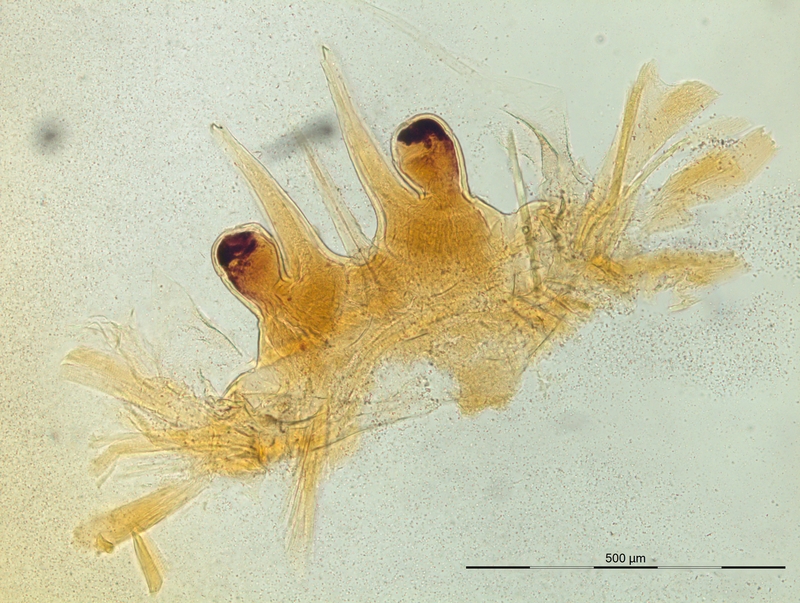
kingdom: Animalia
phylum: Arthropoda
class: Diplopoda
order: Chordeumatida
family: Craspedosomatidae
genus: Macheiriophoron
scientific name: Macheiriophoron verhoeffi
